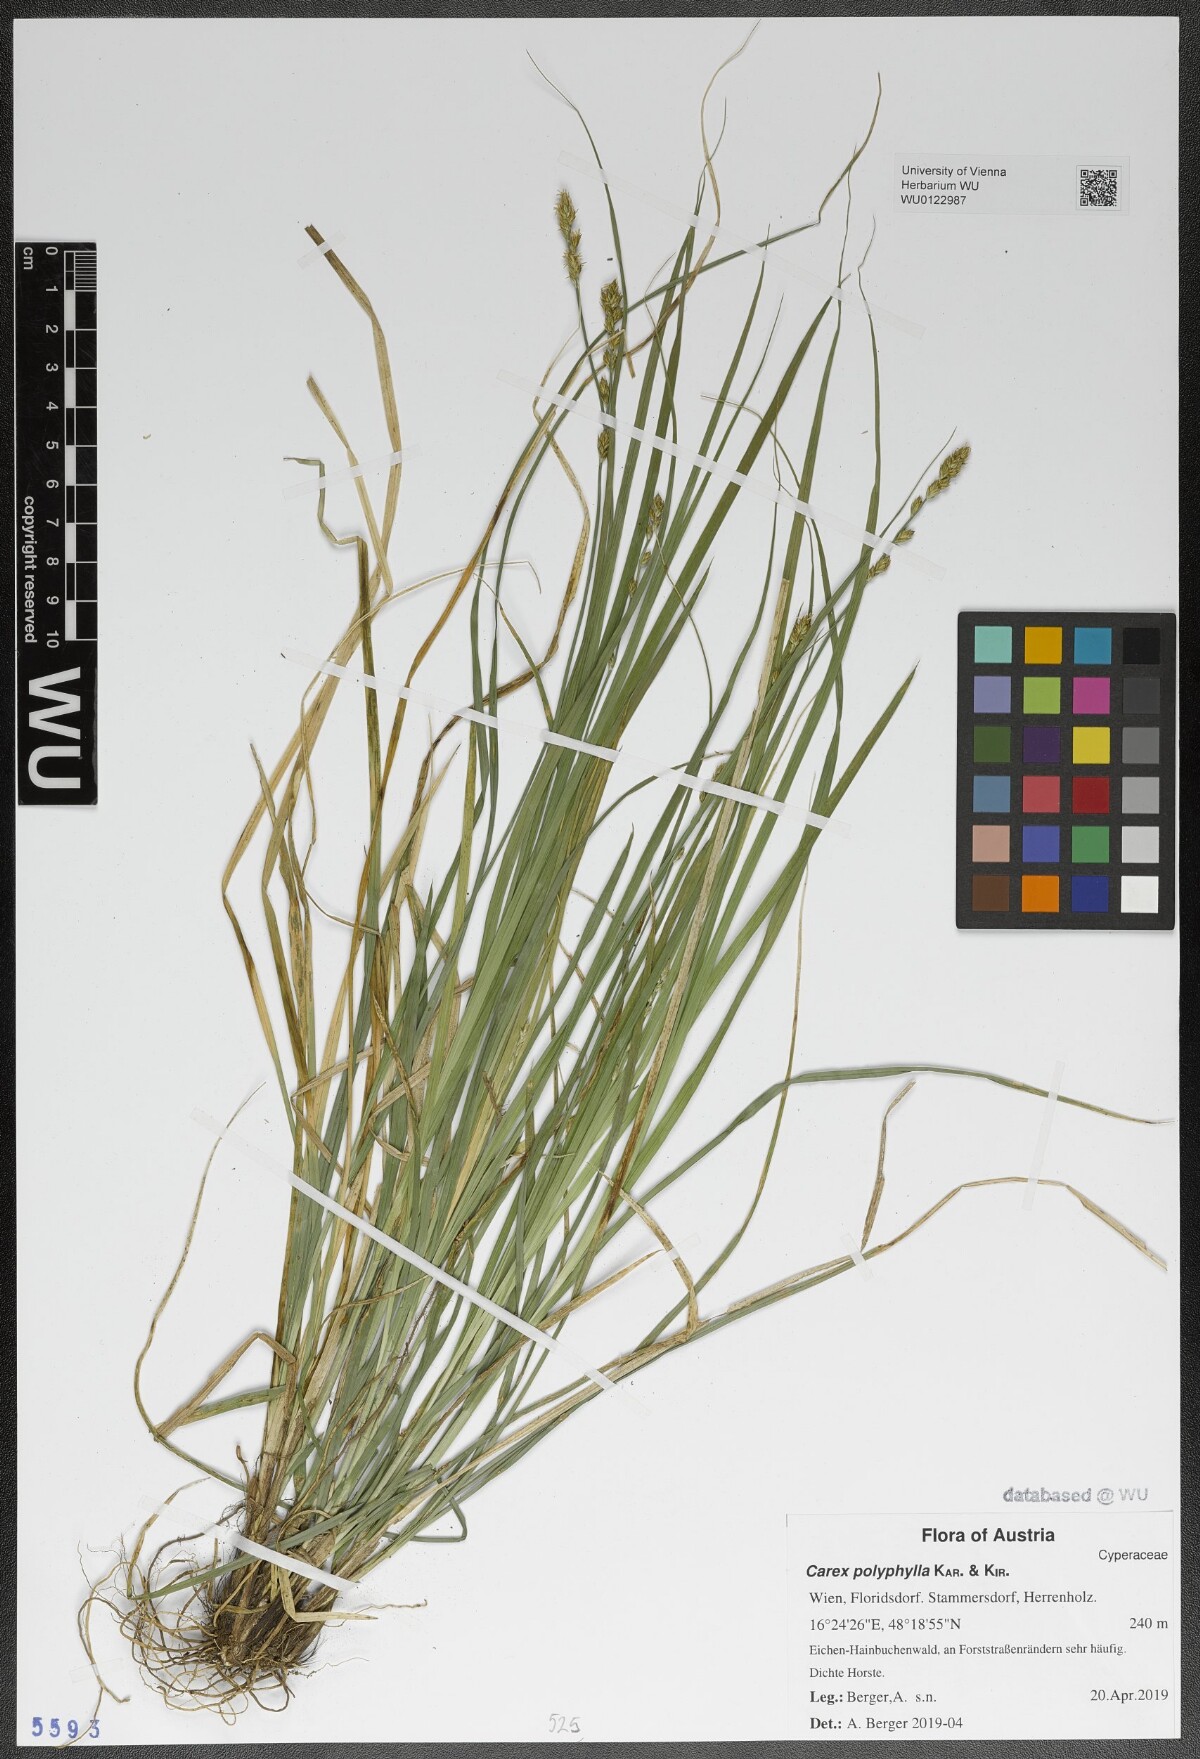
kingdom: Plantae
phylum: Tracheophyta
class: Liliopsida
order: Poales
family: Cyperaceae
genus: Carex
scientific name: Carex polyphylla
